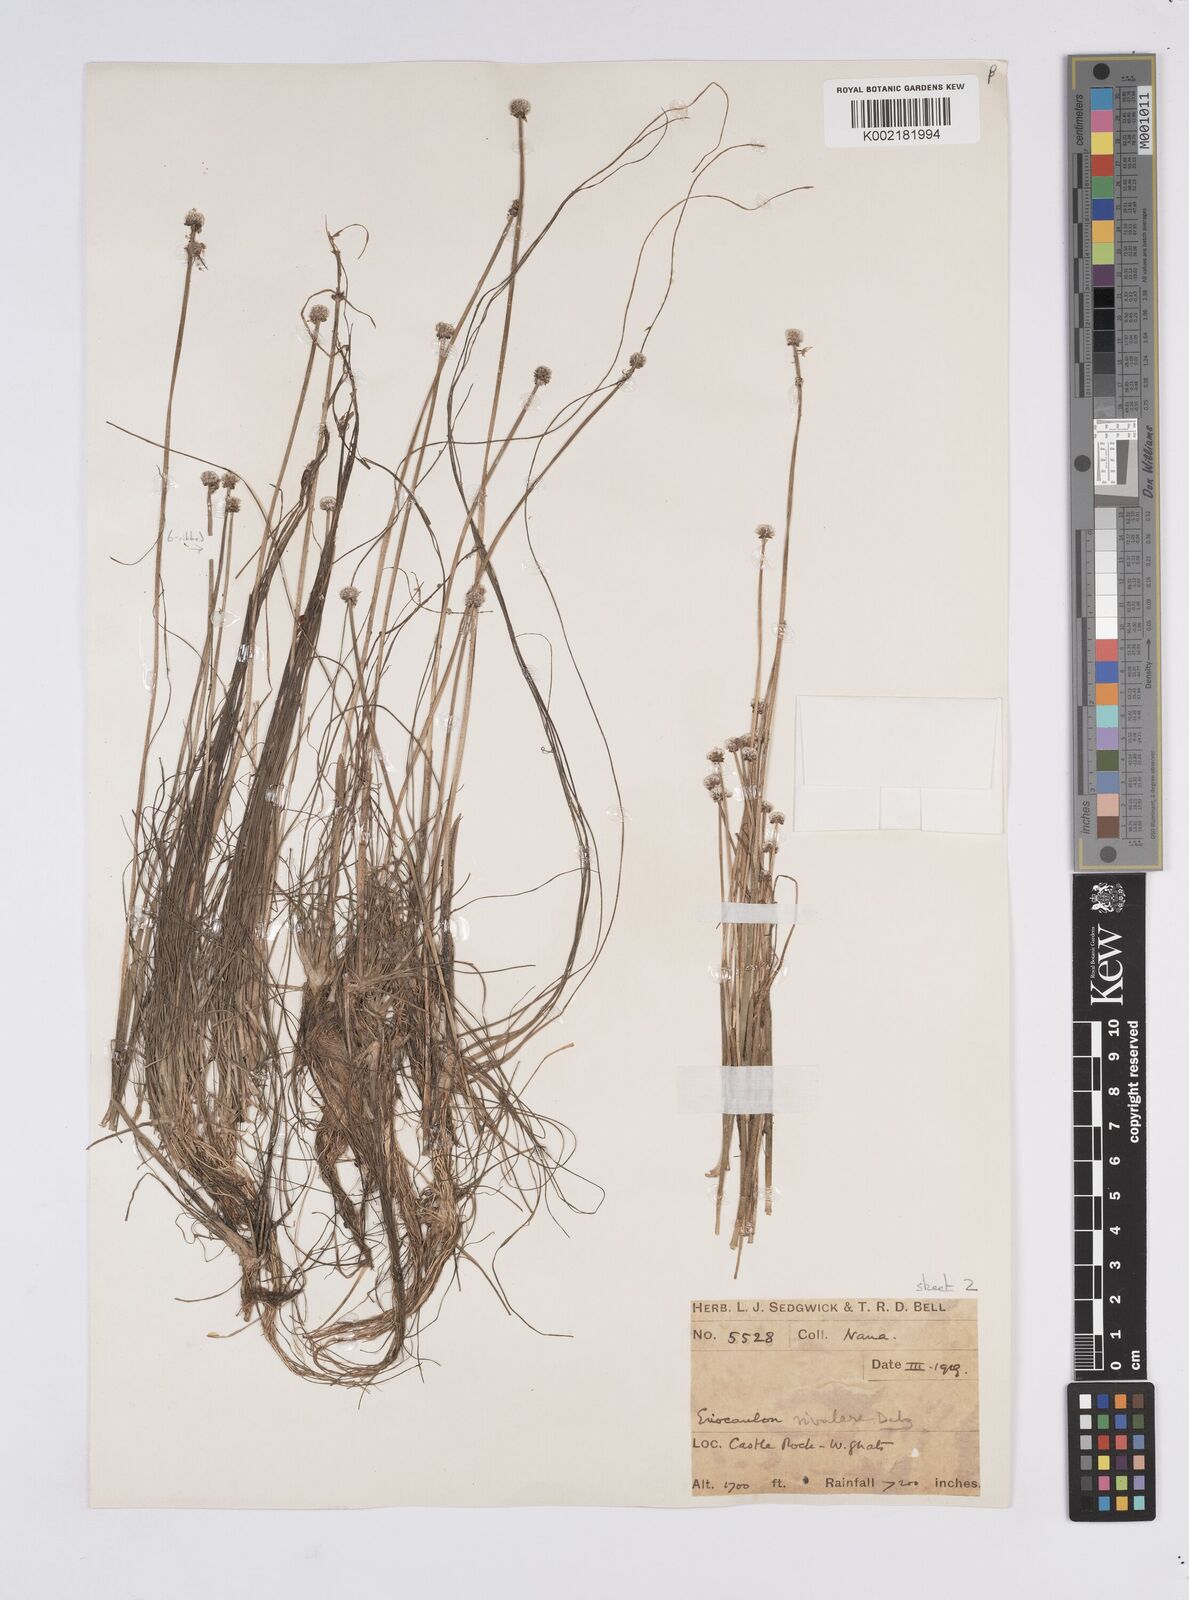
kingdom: Plantae
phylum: Tracheophyta
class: Liliopsida
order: Poales
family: Eriocaulaceae
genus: Eriocaulon
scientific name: Eriocaulon fluviatile
